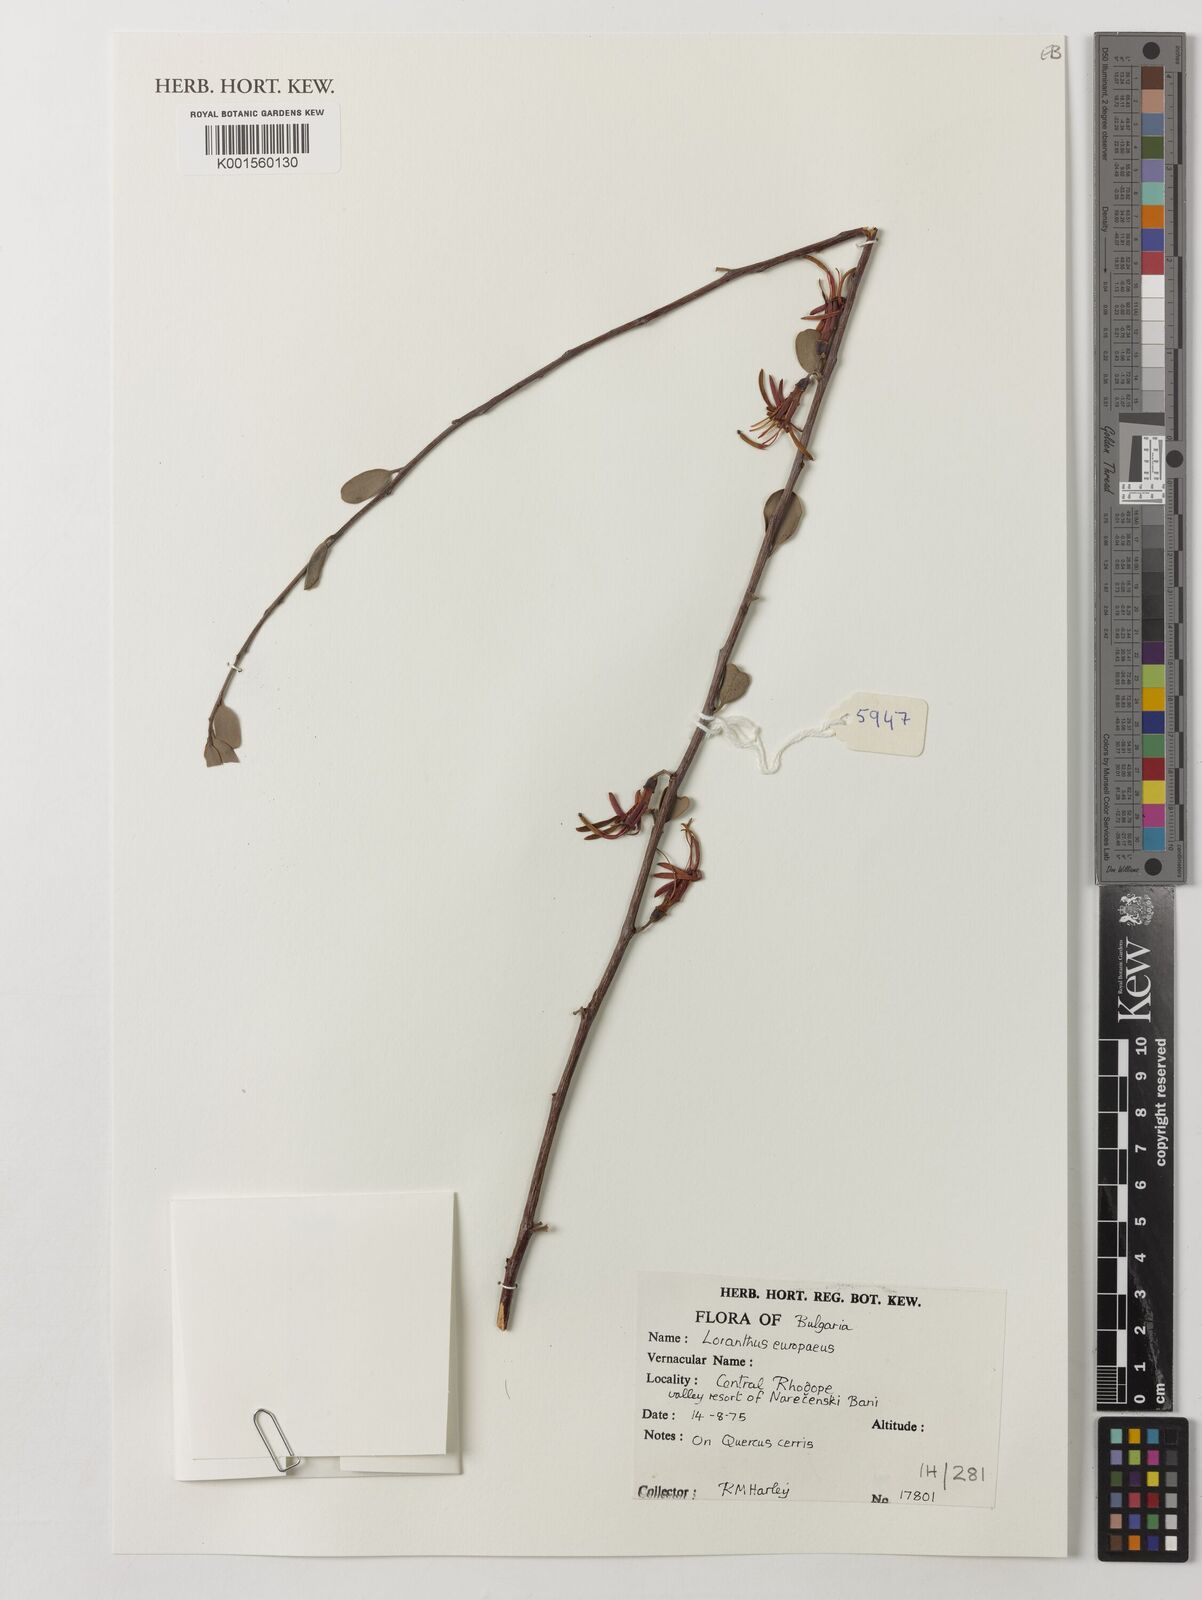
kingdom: Plantae
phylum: Tracheophyta
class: Magnoliopsida
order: Santalales
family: Loranthaceae
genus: Loranthus
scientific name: Loranthus europaeus
